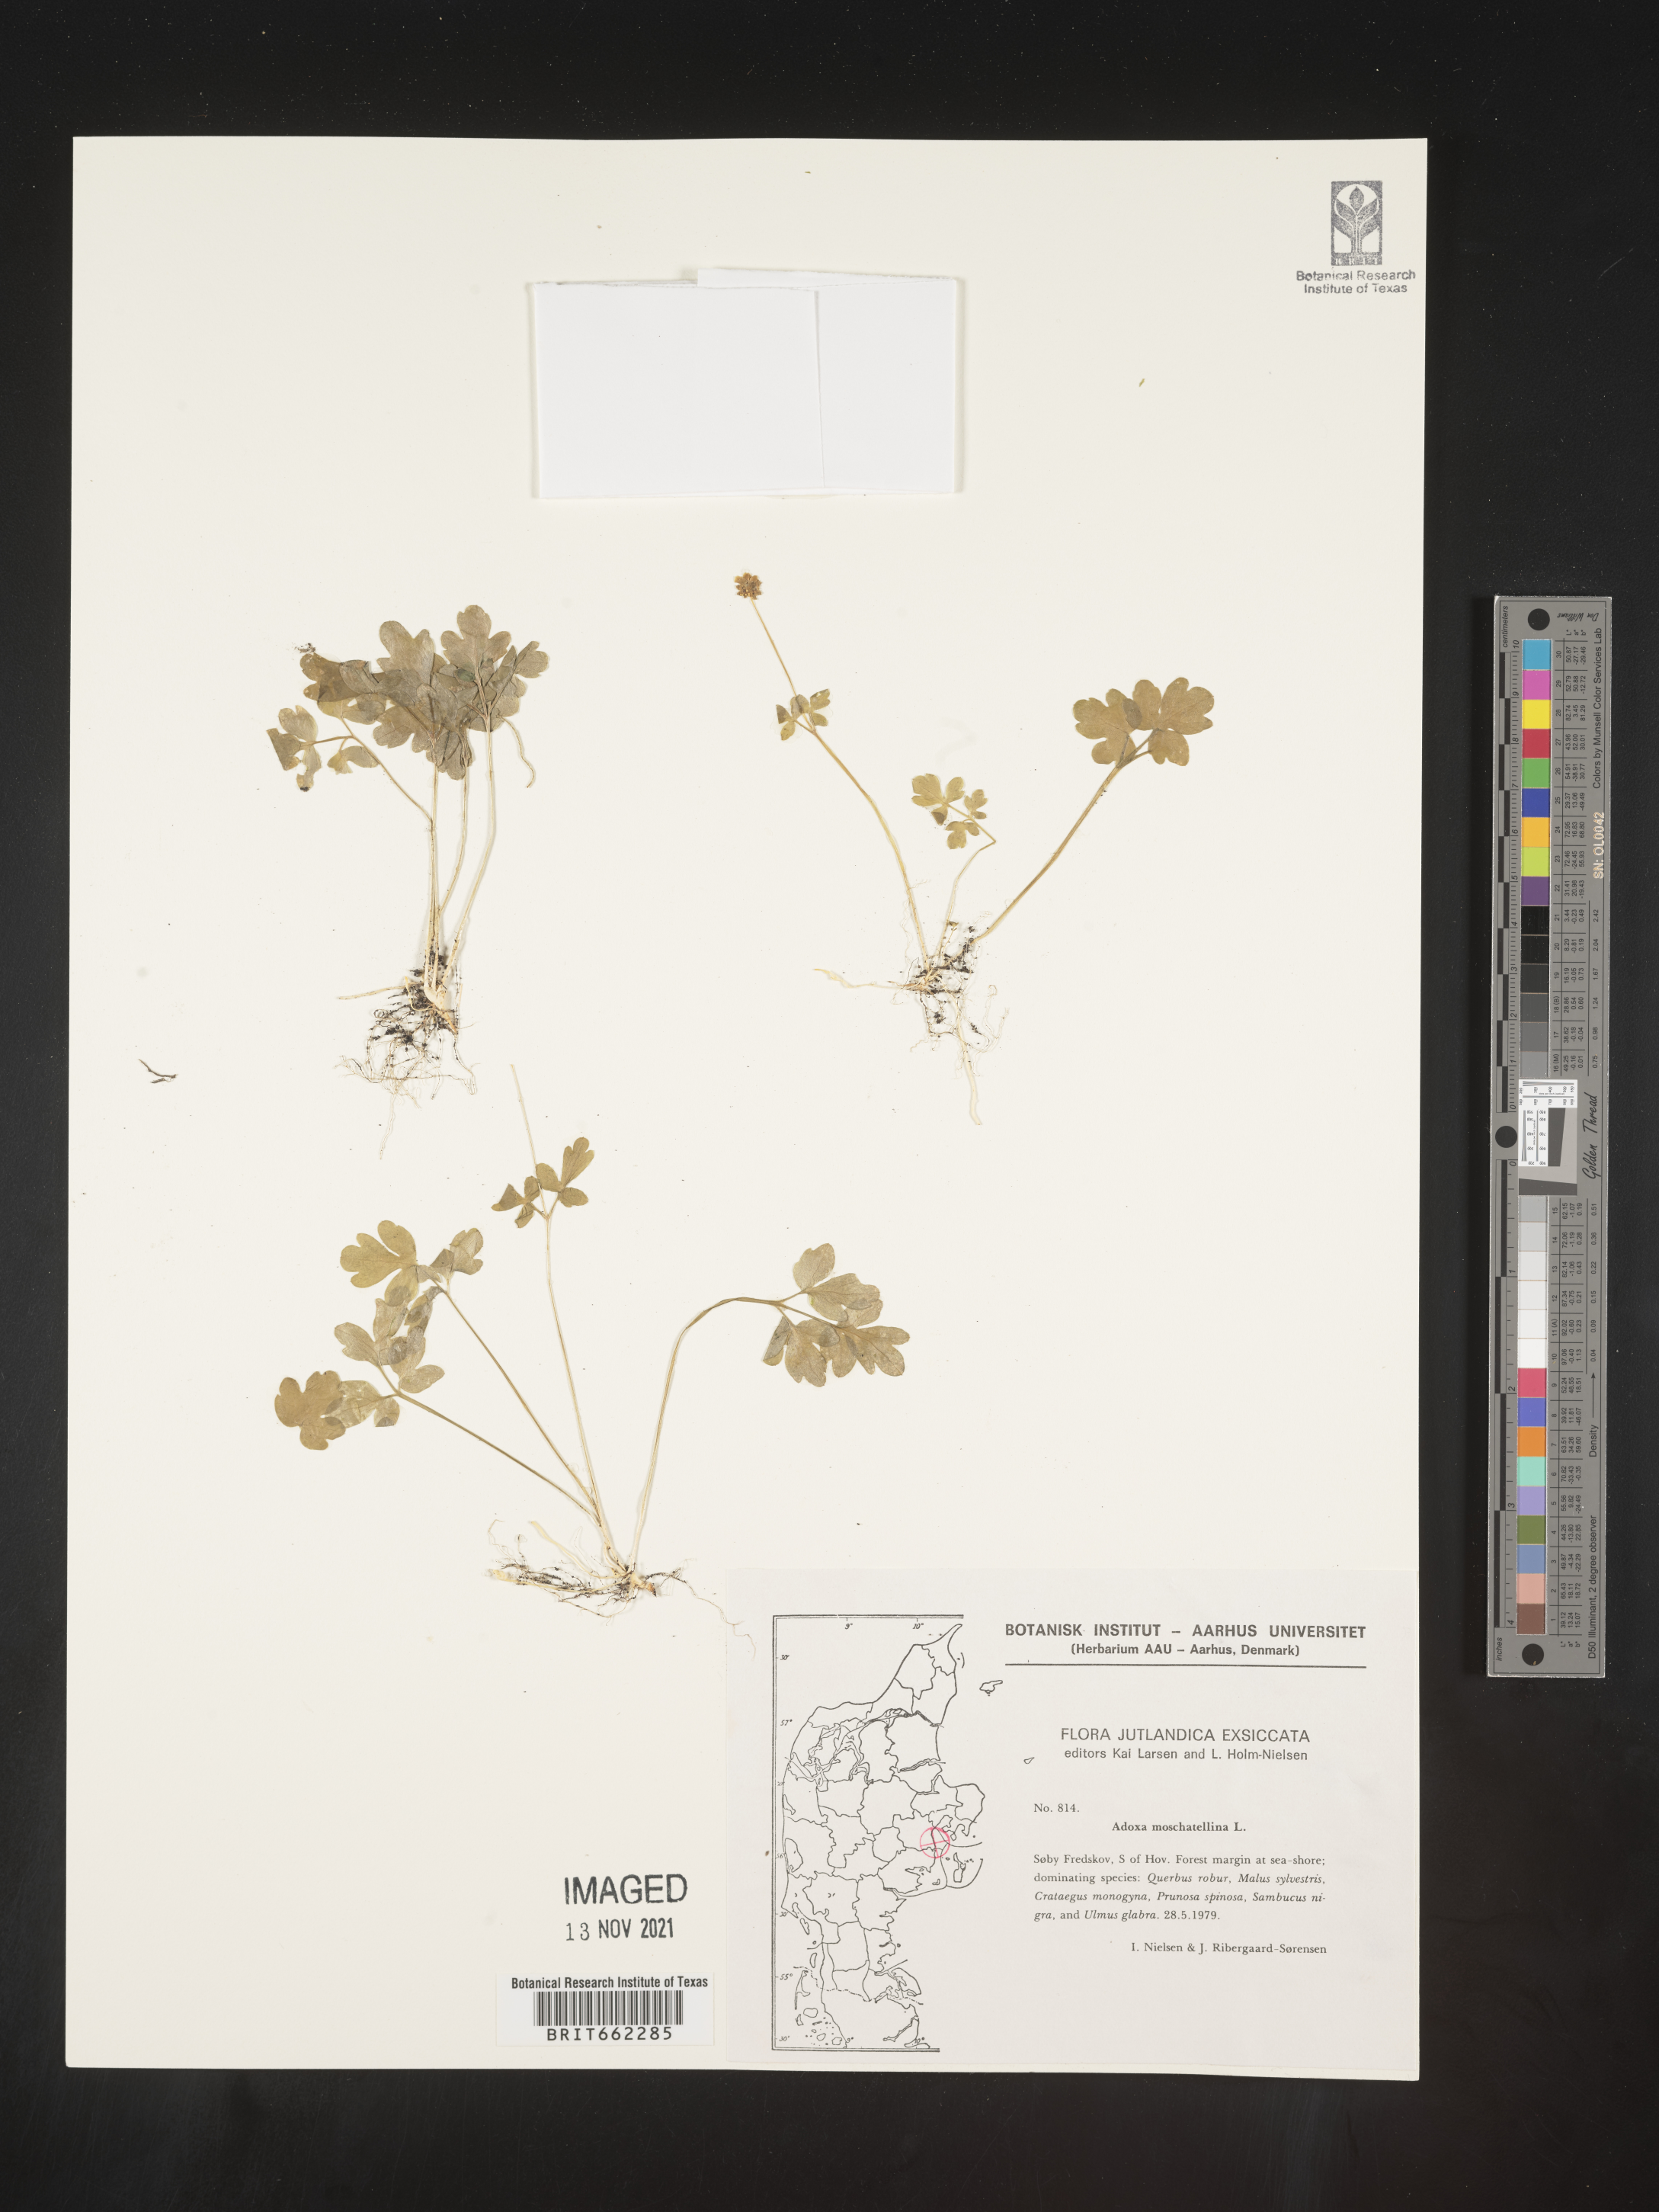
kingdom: Plantae
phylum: Tracheophyta
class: Magnoliopsida
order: Dipsacales
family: Viburnaceae
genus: Adoxa
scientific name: Adoxa
